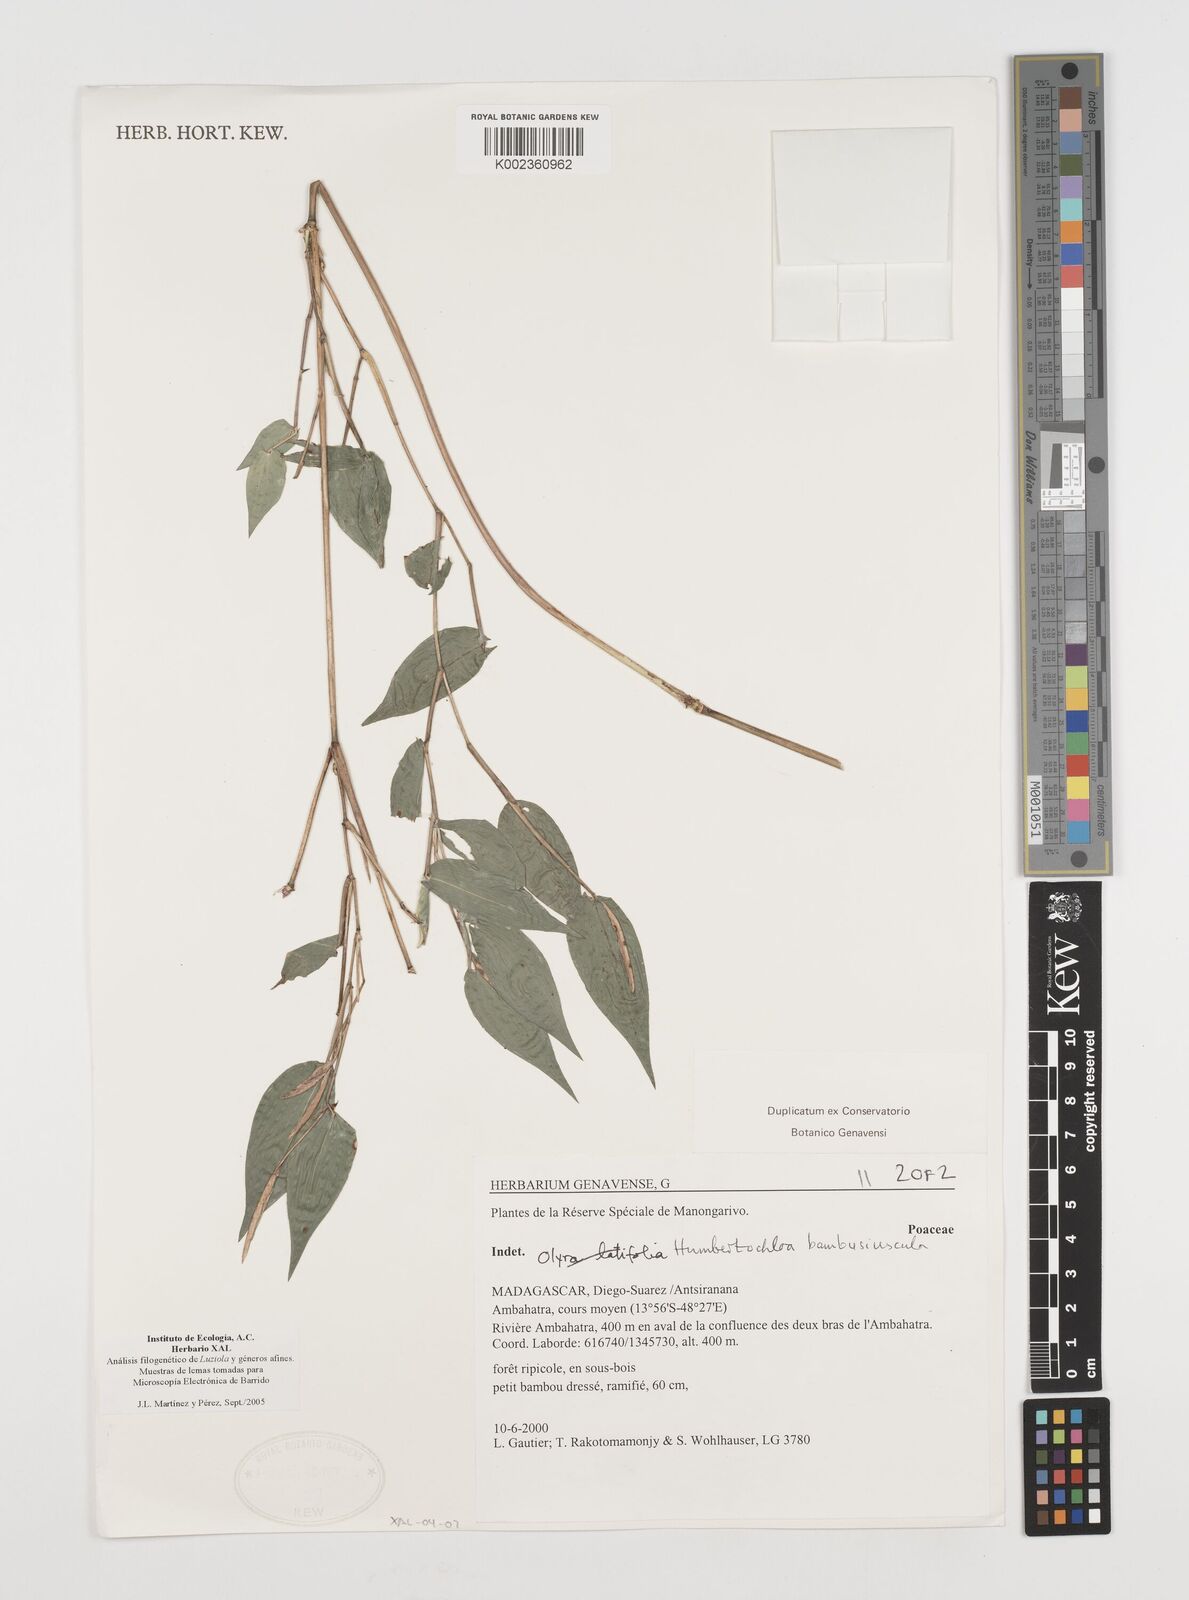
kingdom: Plantae
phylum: Tracheophyta
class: Liliopsida
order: Poales
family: Poaceae
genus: Humbertochloa
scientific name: Humbertochloa bambusiuscula
